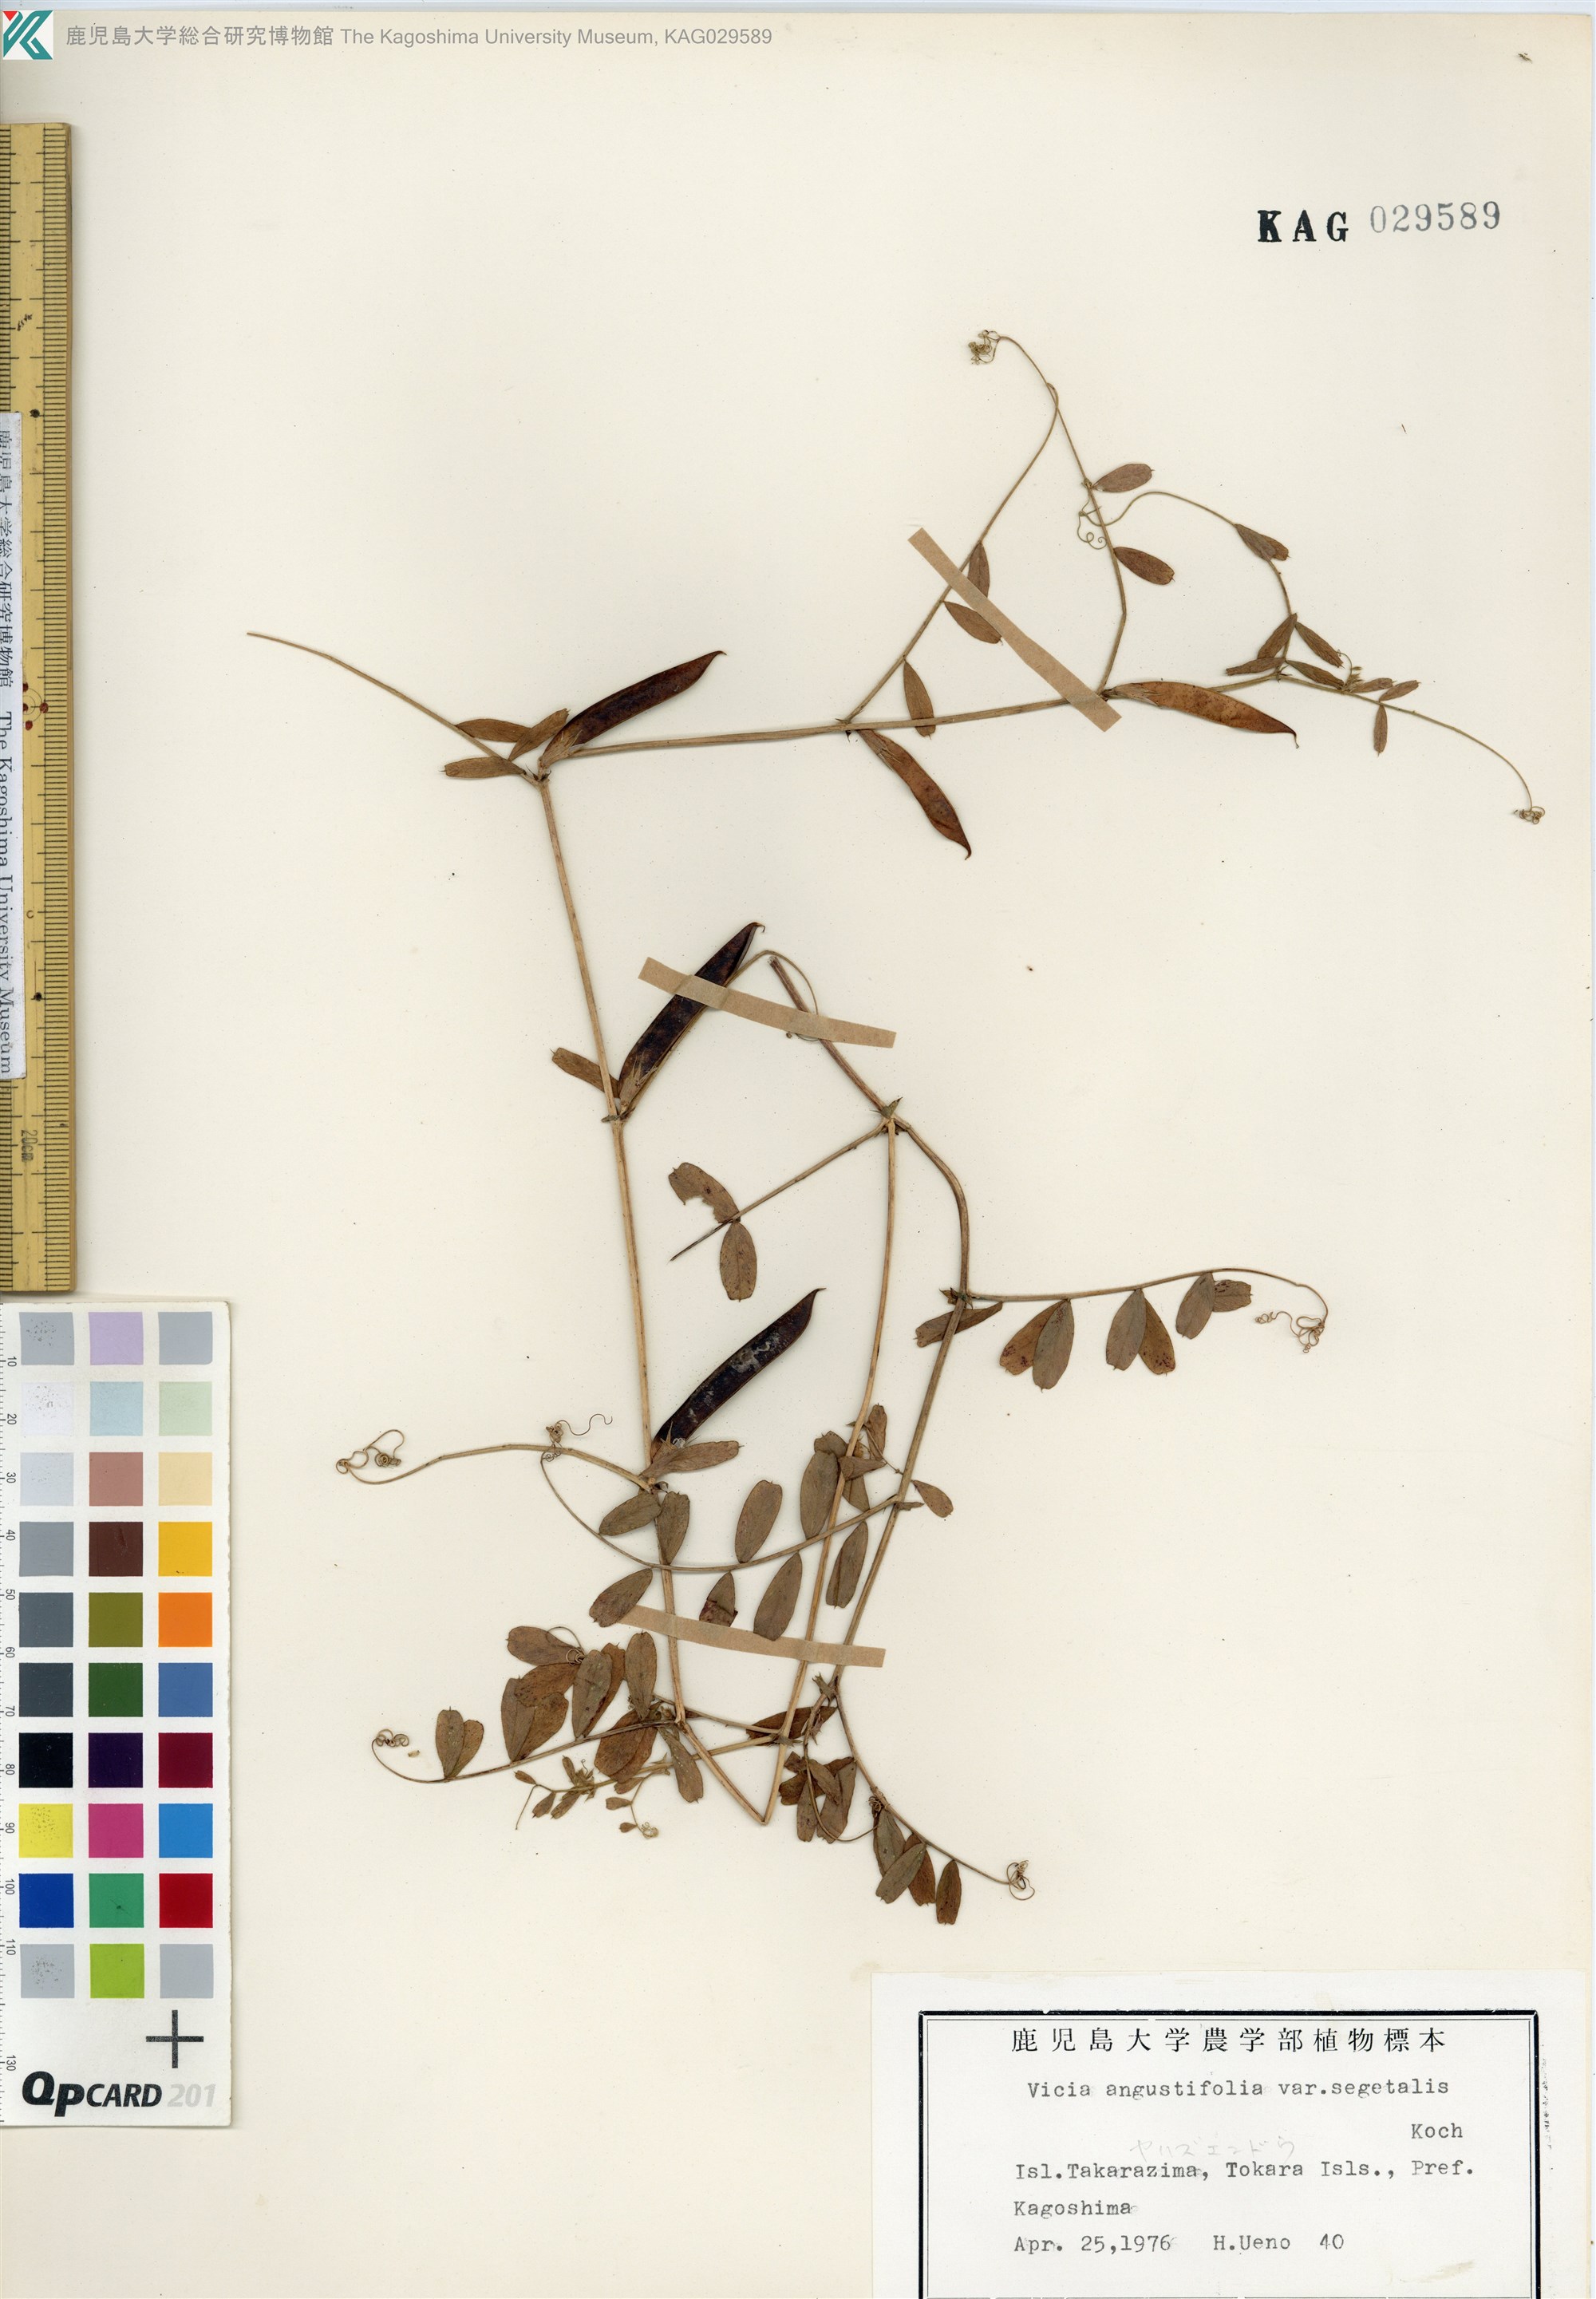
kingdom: Plantae
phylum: Tracheophyta
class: Magnoliopsida
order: Fabales
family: Fabaceae
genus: Vicia
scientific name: Vicia sativa
